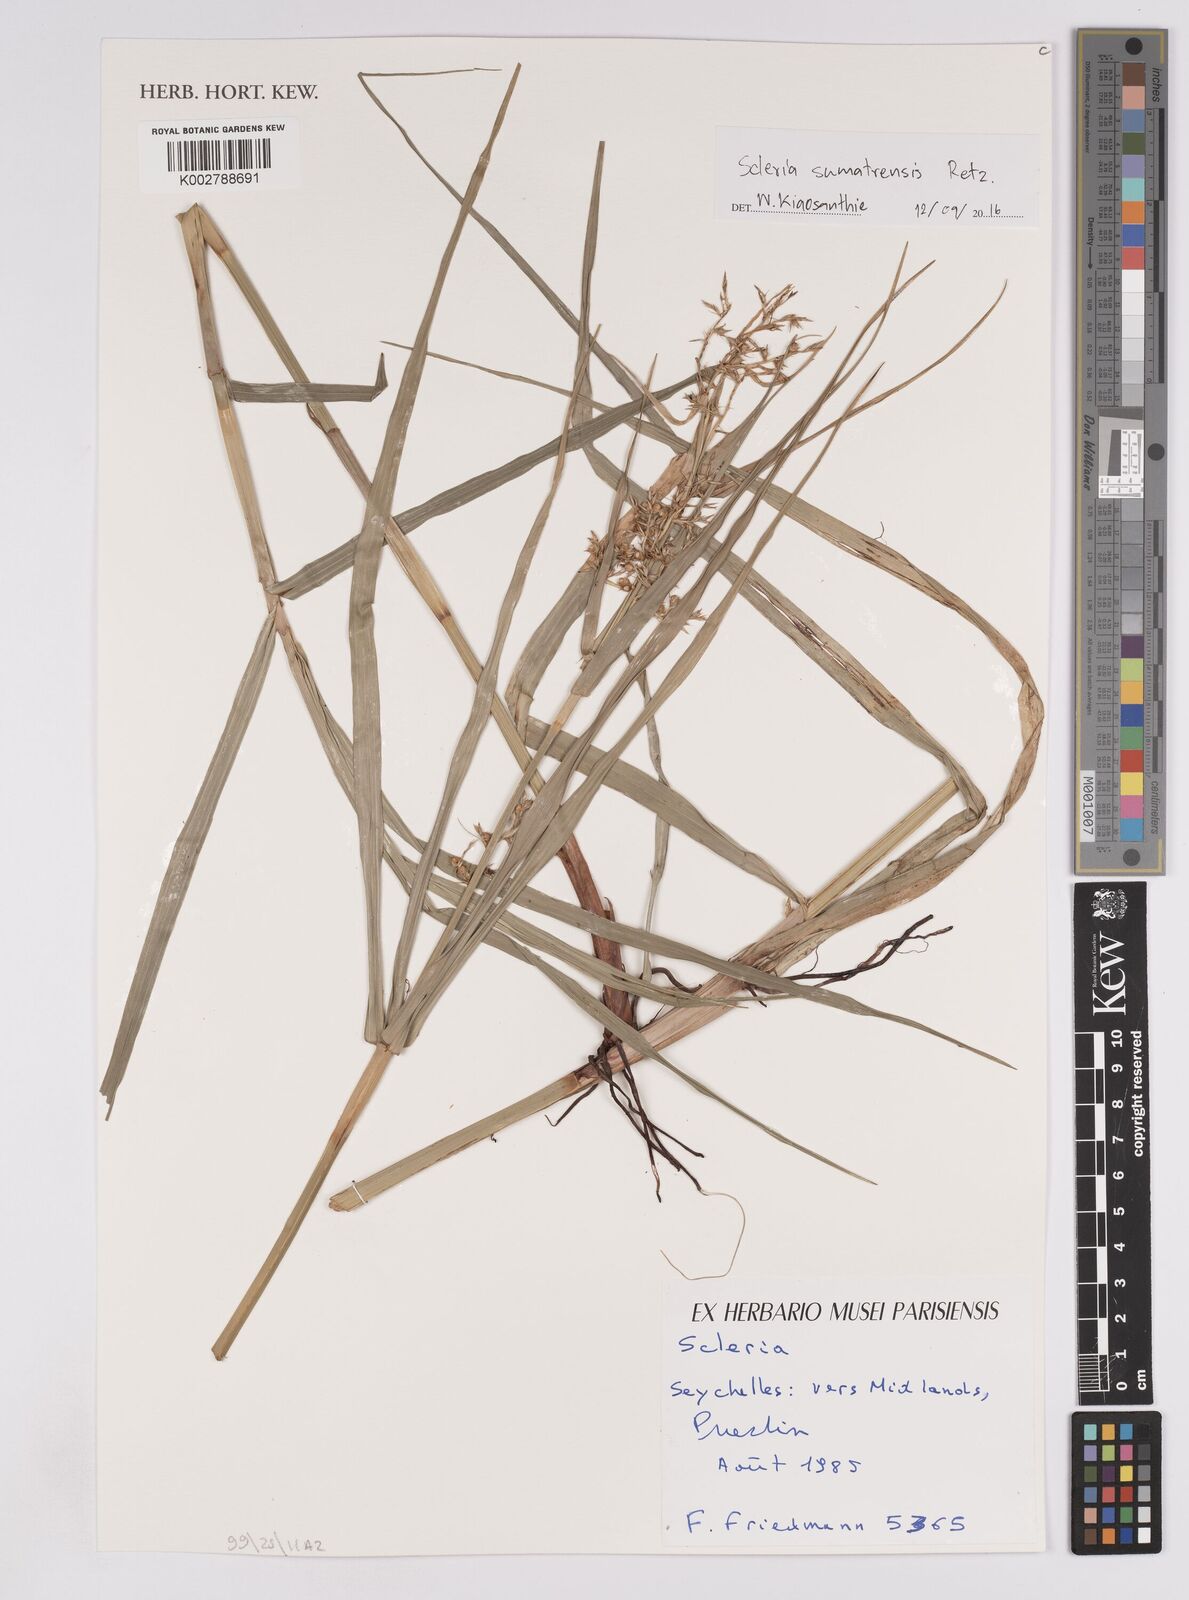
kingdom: Plantae
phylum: Tracheophyta
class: Liliopsida
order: Poales
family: Cyperaceae
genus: Scleria
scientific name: Scleria sumatrensis
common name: Sumatran scleria
